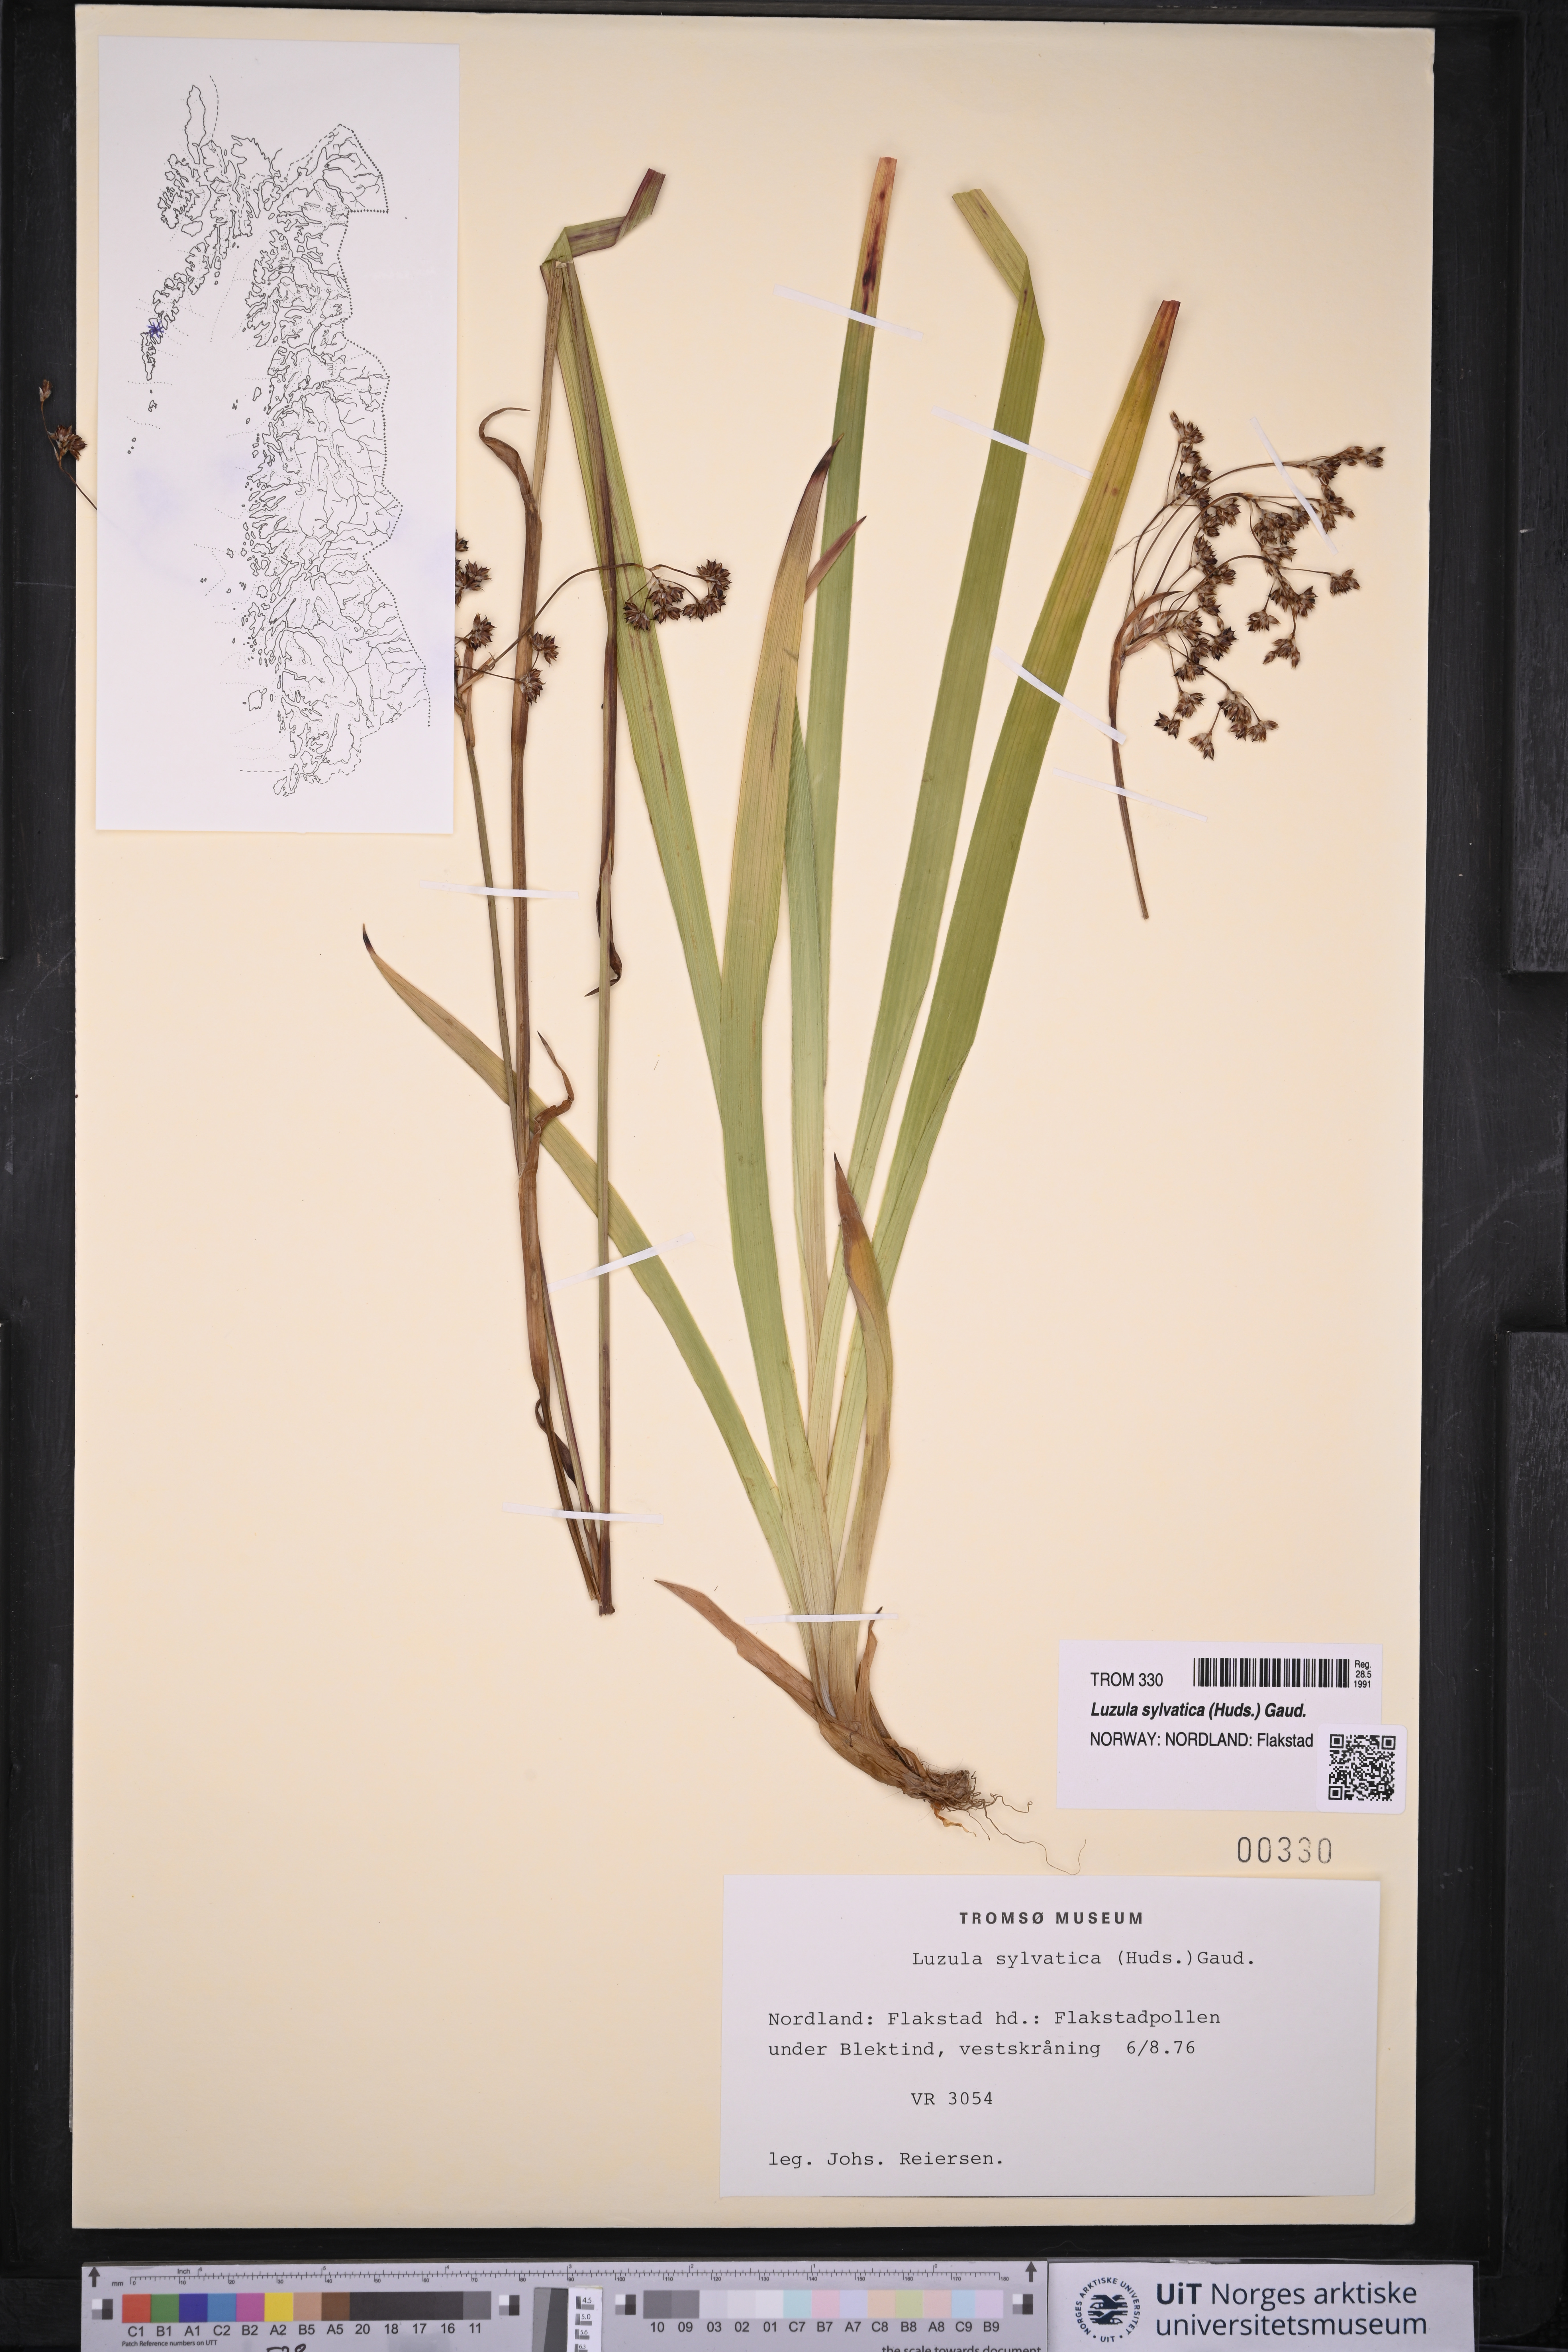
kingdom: Plantae
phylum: Tracheophyta
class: Liliopsida
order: Poales
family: Juncaceae
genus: Luzula
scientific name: Luzula sylvatica
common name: Great wood-rush
